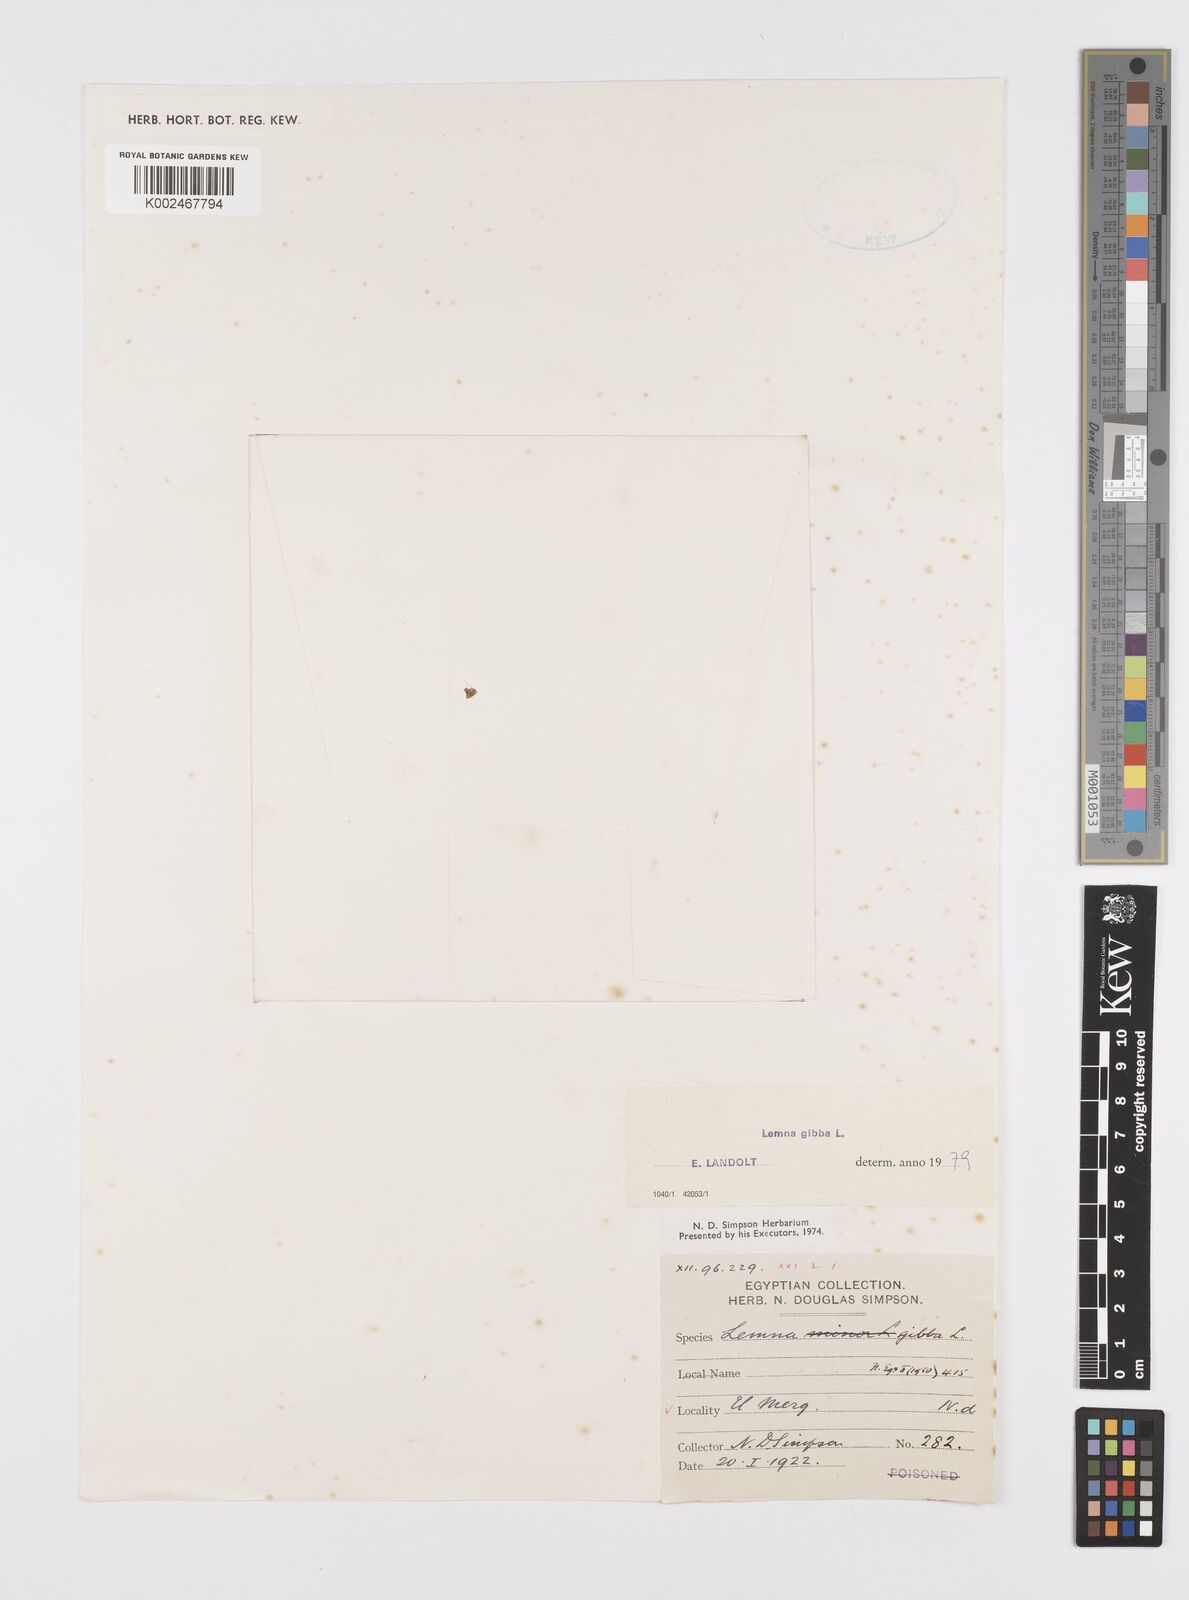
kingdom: Plantae
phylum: Tracheophyta
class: Liliopsida
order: Alismatales
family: Araceae
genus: Lemna
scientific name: Lemna gibba
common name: Fat duckweed
